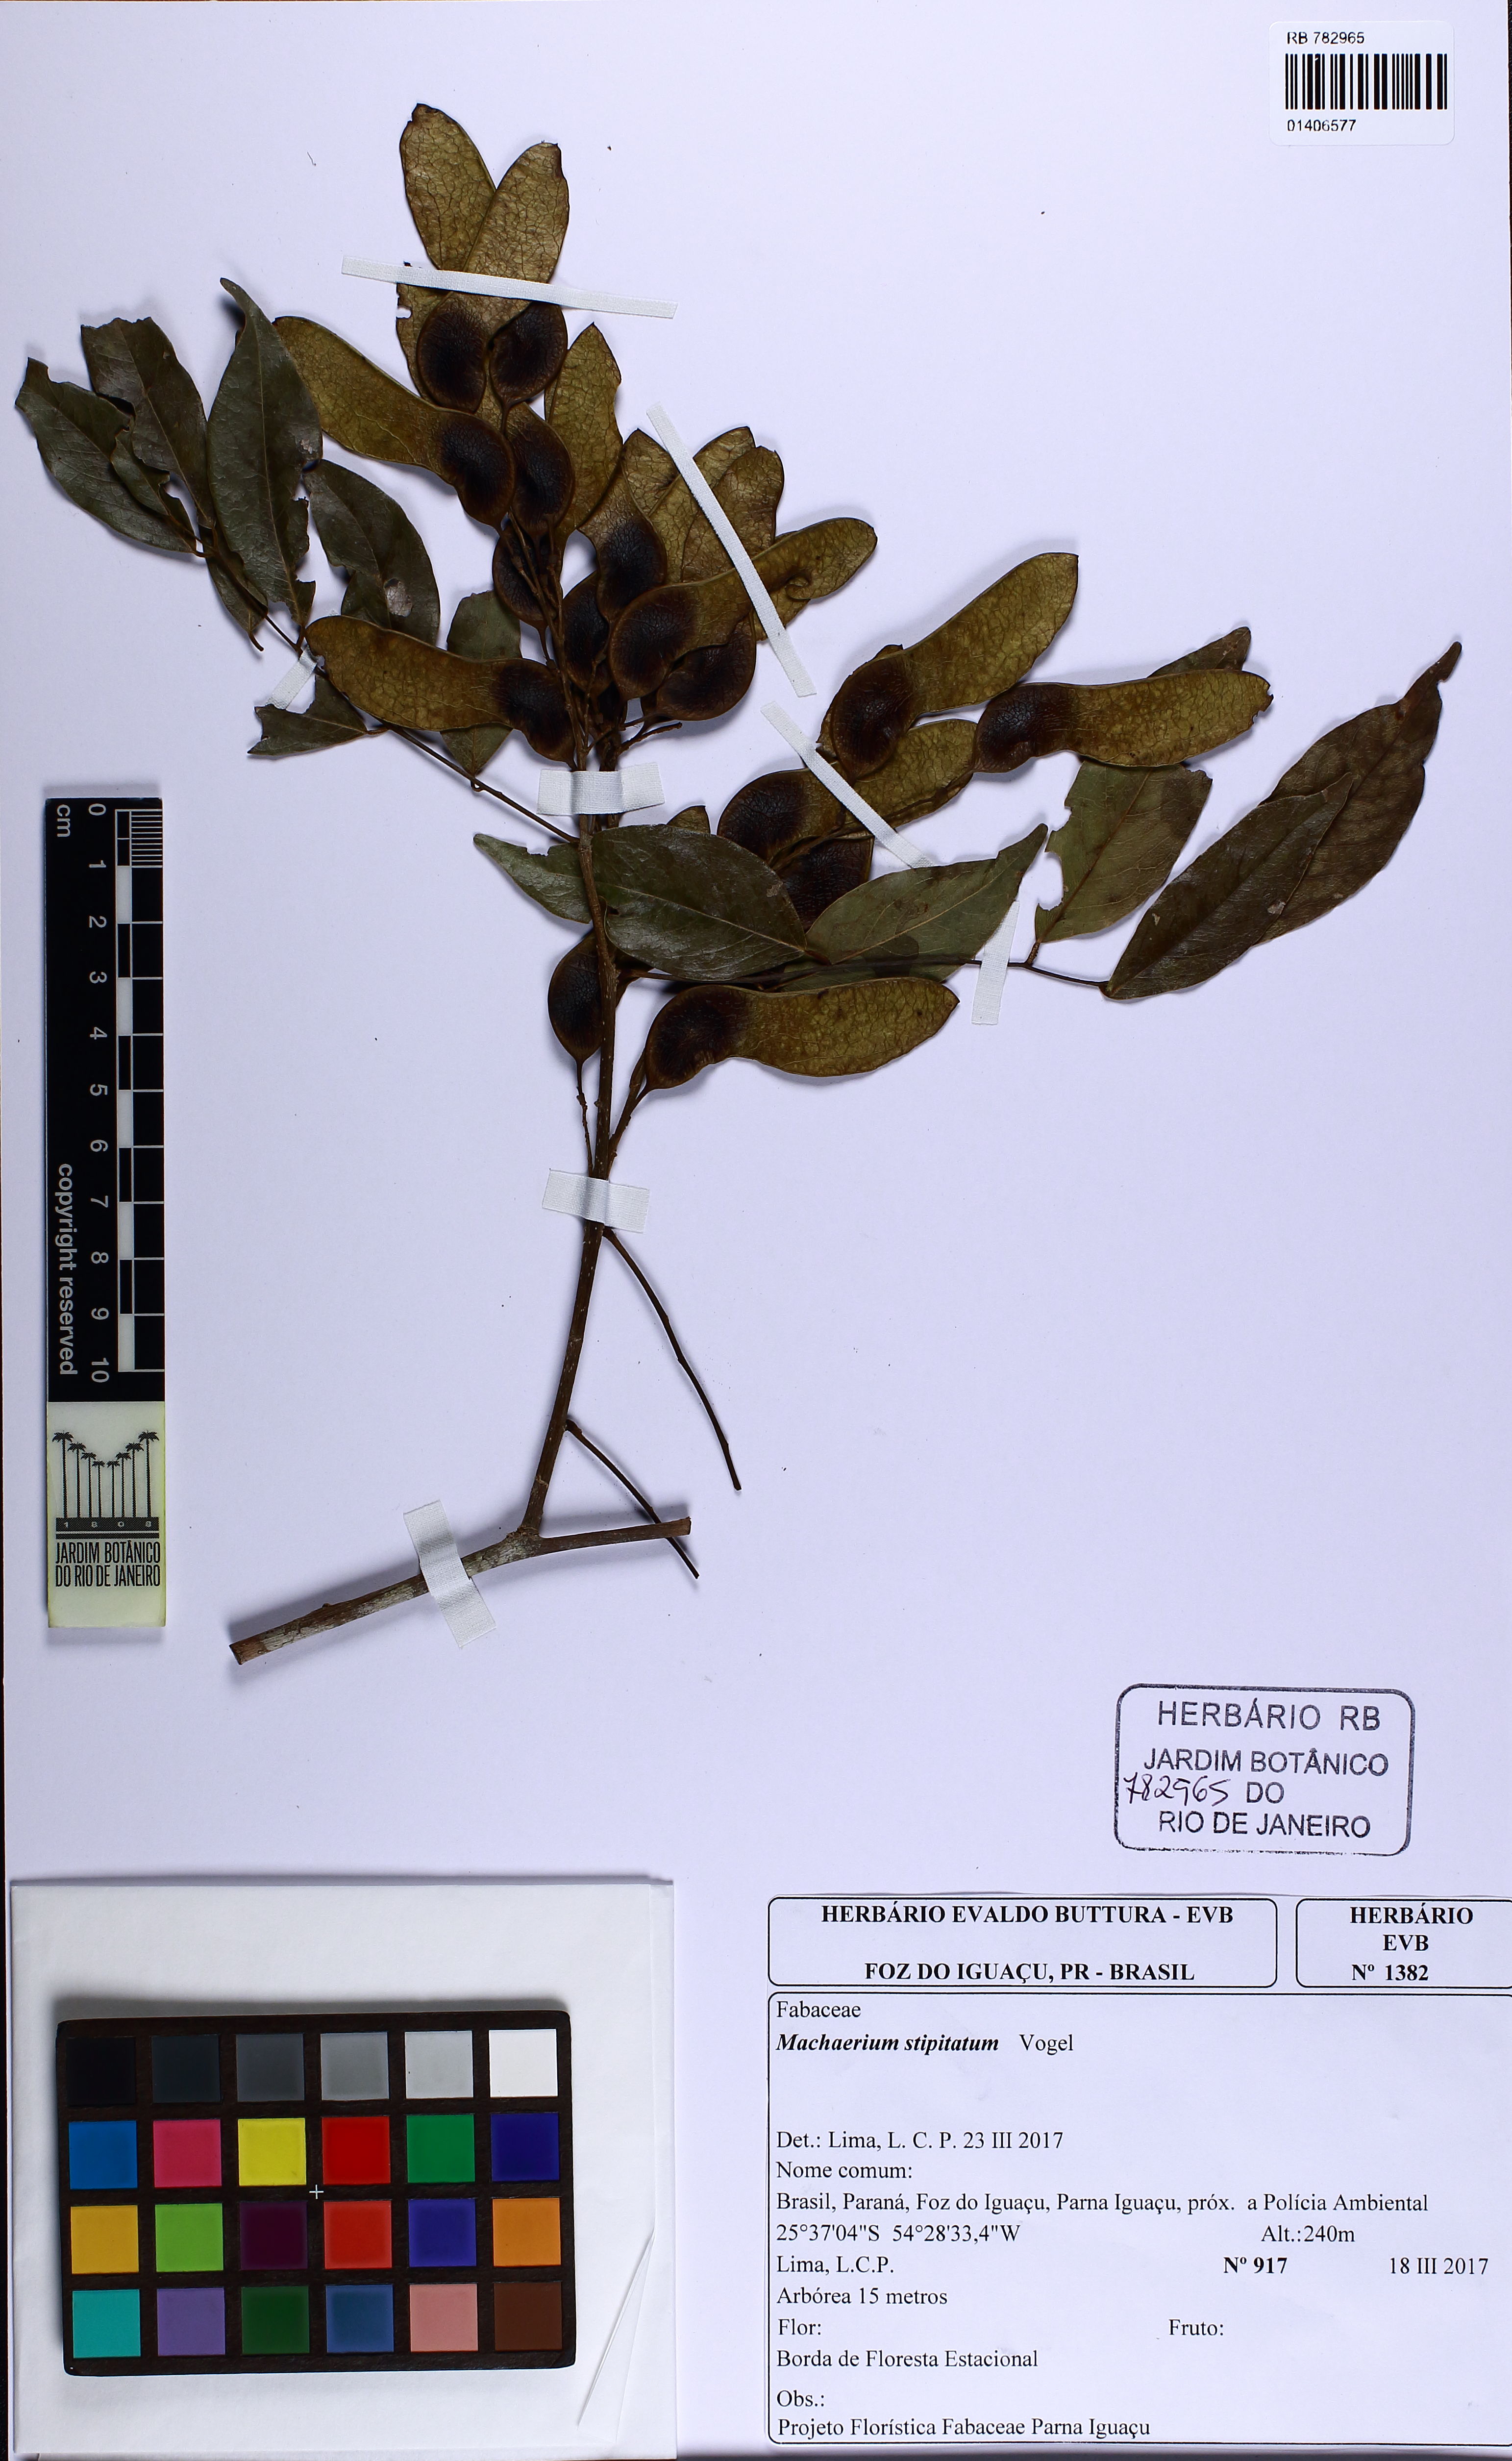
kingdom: Plantae
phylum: Tracheophyta
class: Magnoliopsida
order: Fabales
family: Fabaceae
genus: Machaerium
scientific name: Machaerium stipitatum
